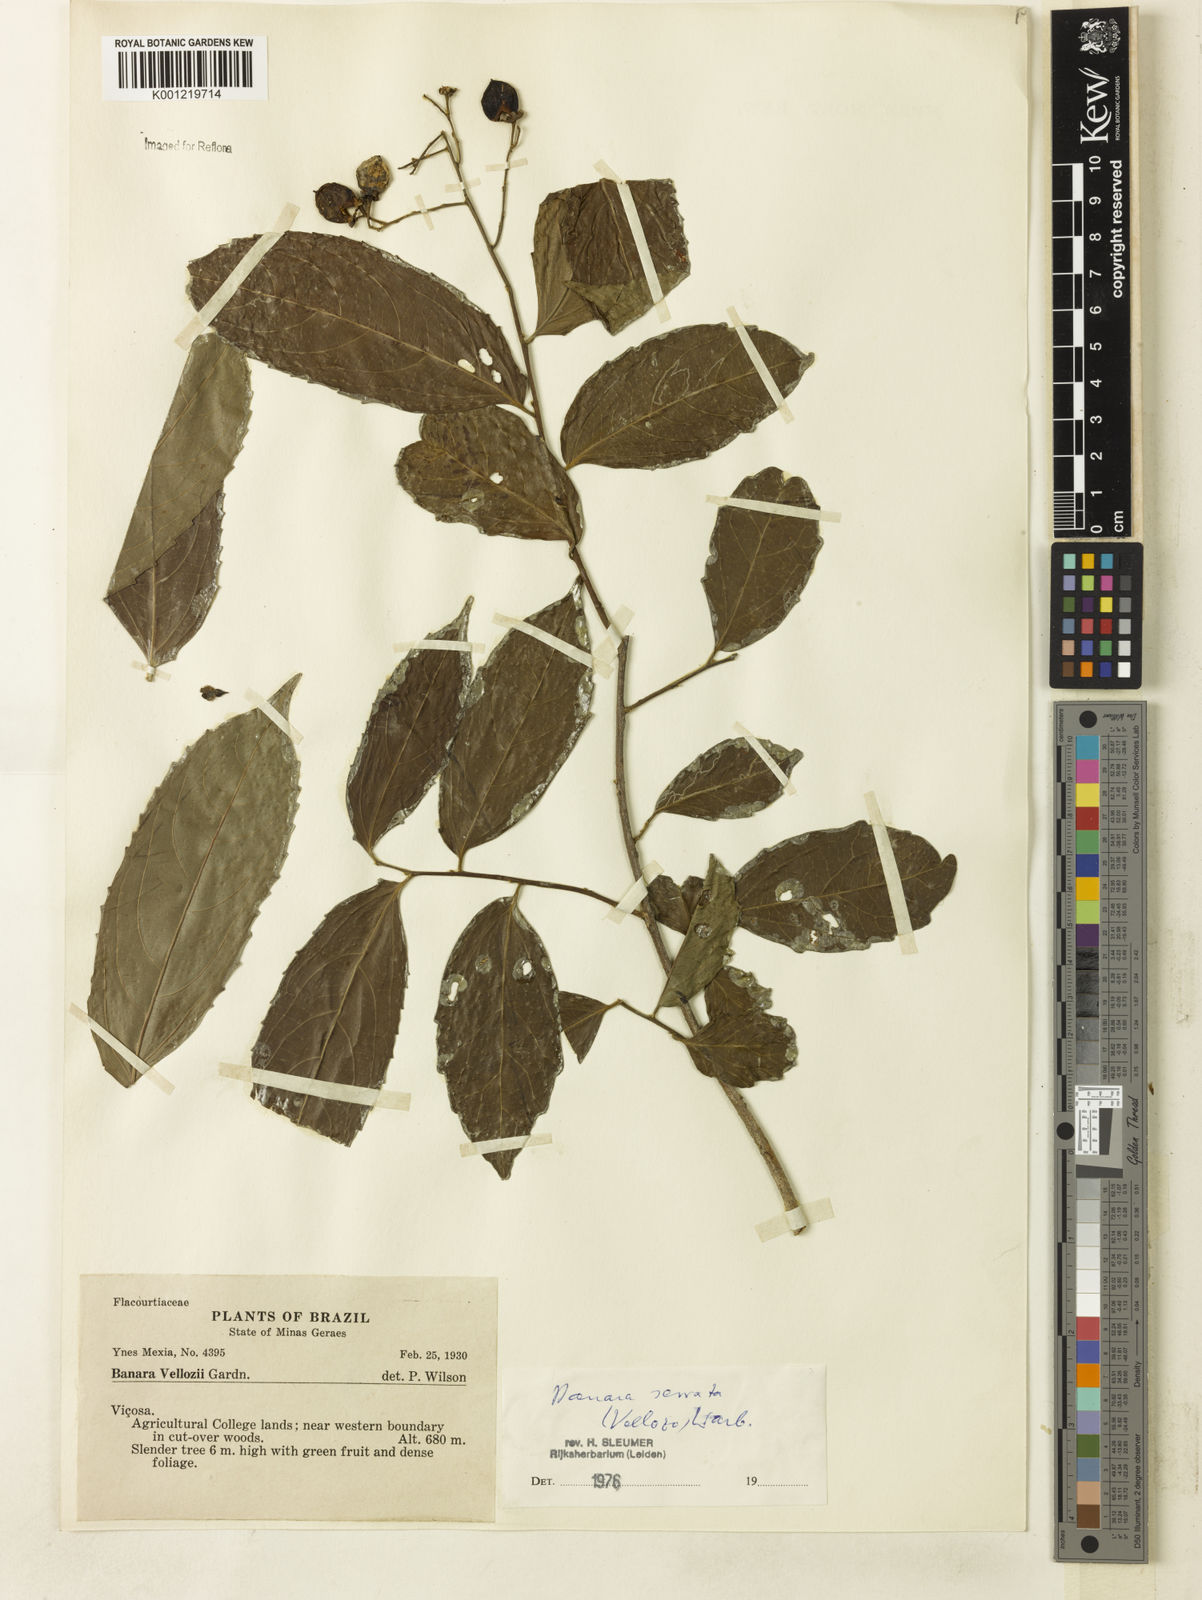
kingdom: Plantae
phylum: Tracheophyta
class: Magnoliopsida
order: Malpighiales
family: Salicaceae
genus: Banara
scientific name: Banara serrata
